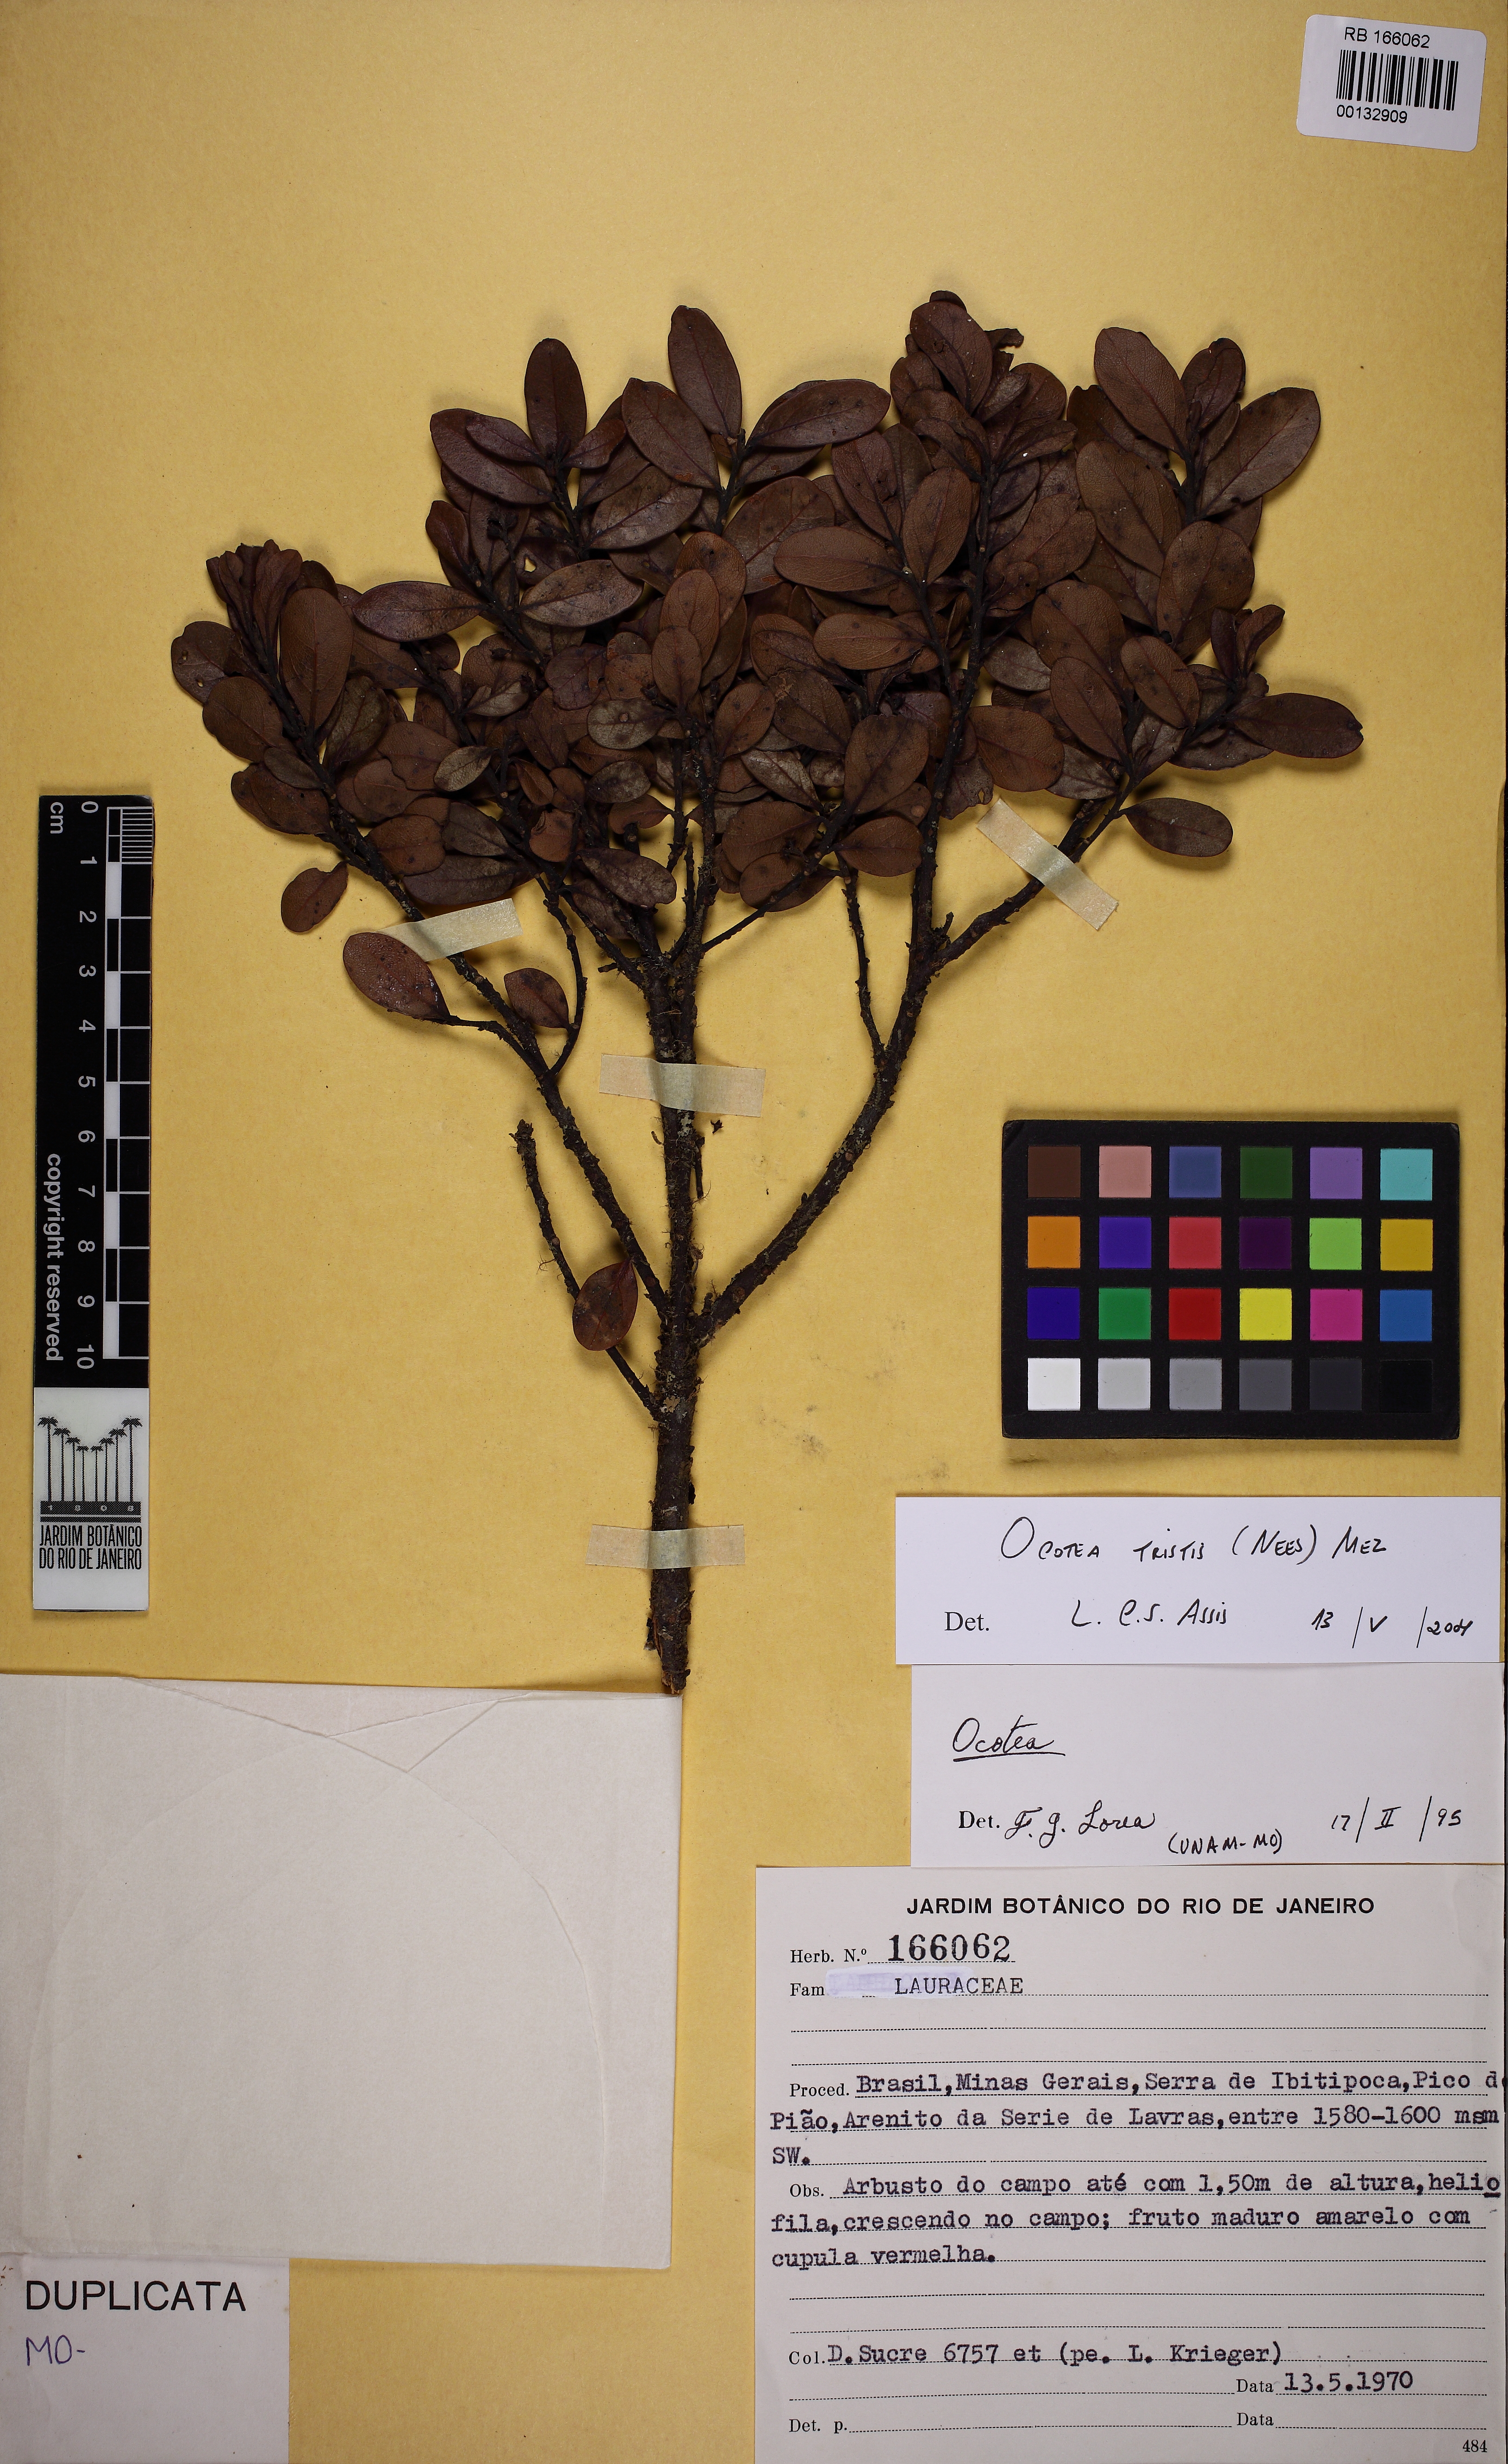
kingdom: Plantae
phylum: Tracheophyta
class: Magnoliopsida
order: Laurales
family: Lauraceae
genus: Mespilodaphne
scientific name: Mespilodaphne tristis
